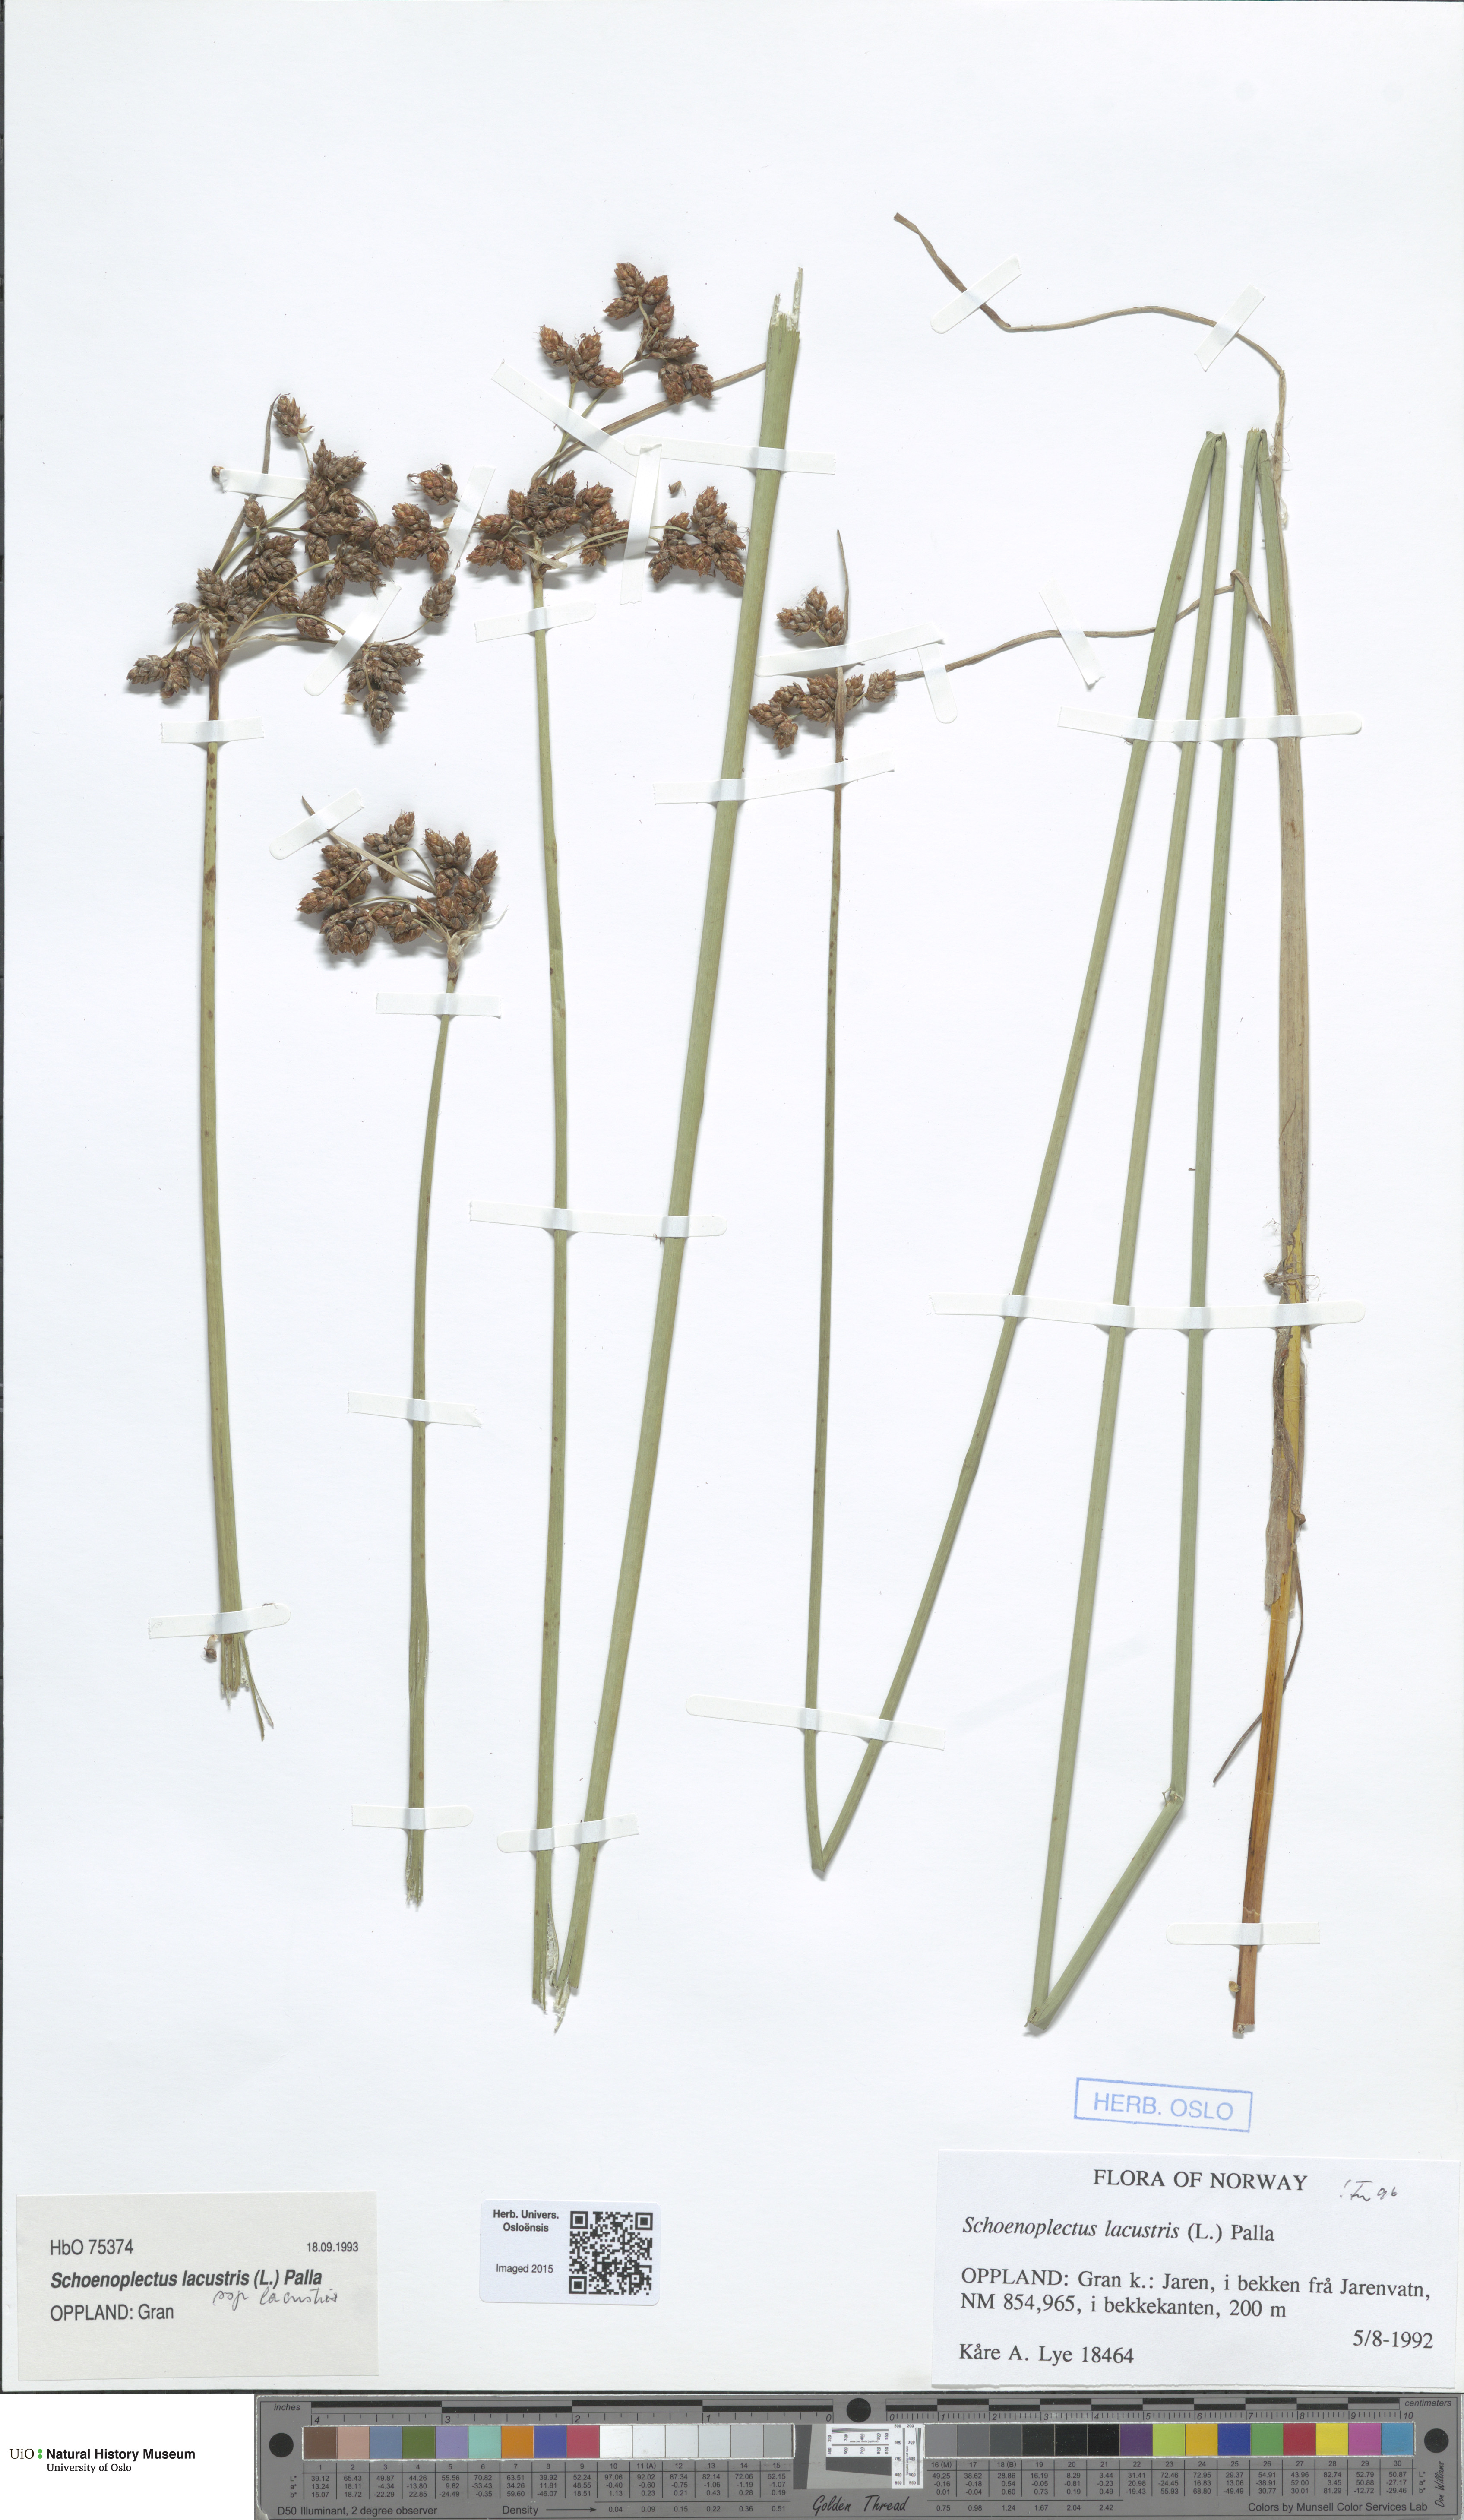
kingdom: Plantae
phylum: Tracheophyta
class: Liliopsida
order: Poales
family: Cyperaceae
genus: Schoenoplectus
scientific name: Schoenoplectus lacustris
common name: Common club-rush
